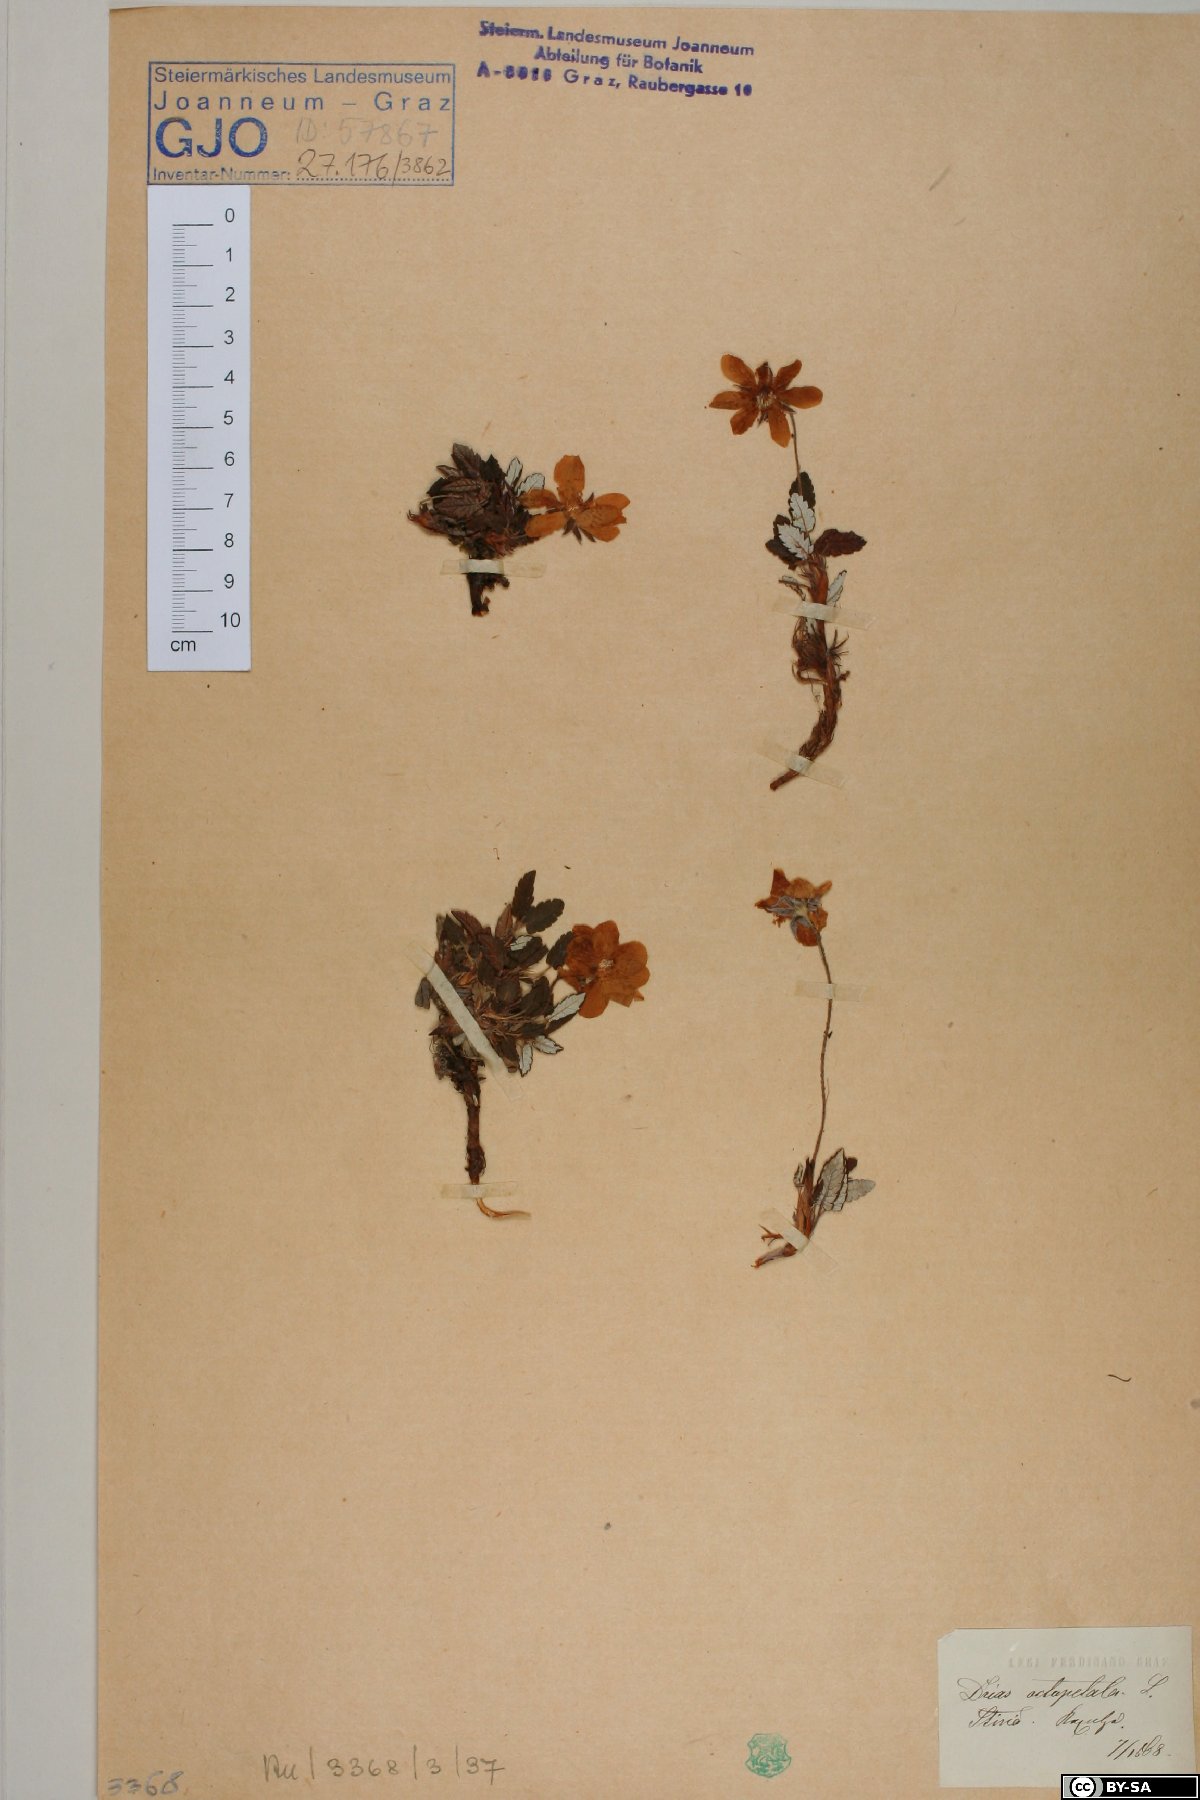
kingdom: Plantae
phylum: Tracheophyta
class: Magnoliopsida
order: Rosales
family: Rosaceae
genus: Dryas
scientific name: Dryas octopetala
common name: Eight-petal mountain-avens
